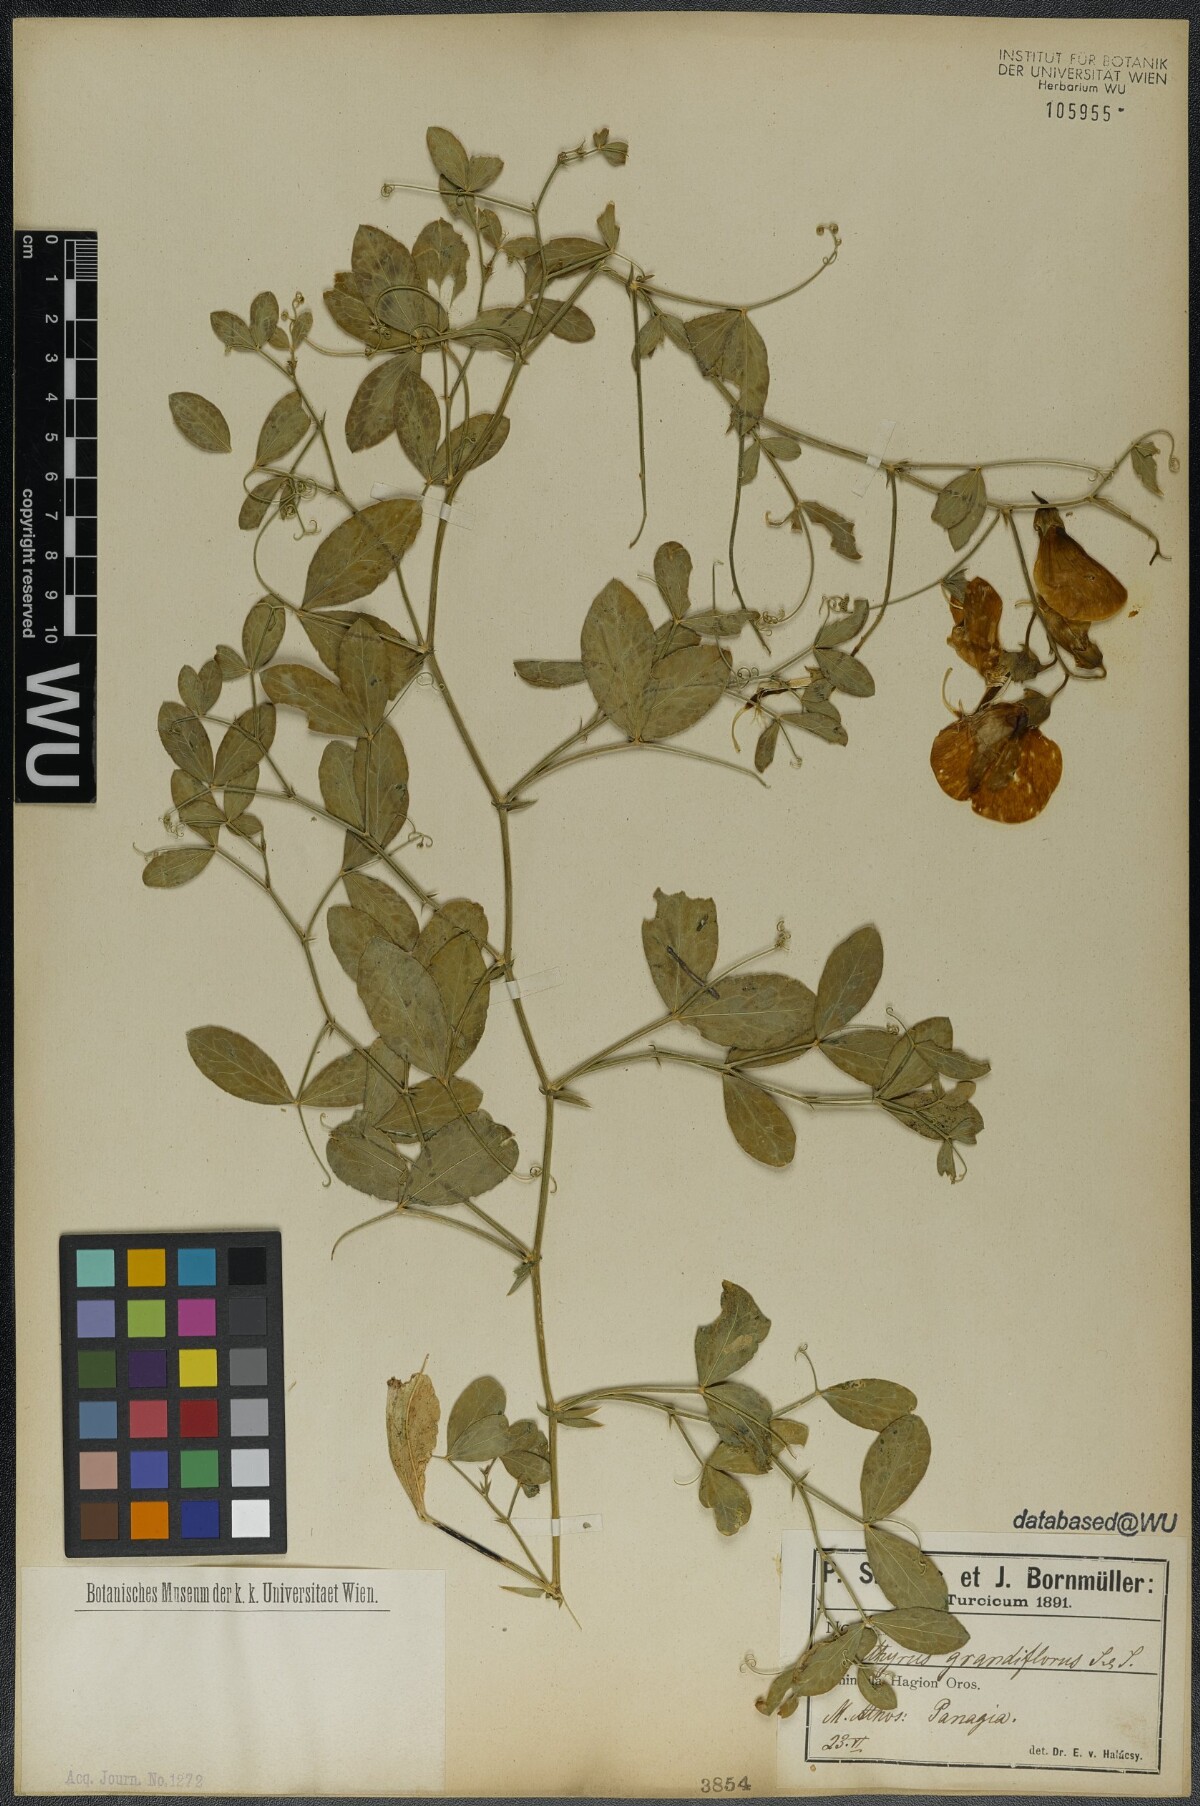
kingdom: Plantae
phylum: Tracheophyta
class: Magnoliopsida
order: Fabales
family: Fabaceae
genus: Lathyrus
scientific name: Lathyrus grandiflorus
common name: Two-flowered everlasting-pea
